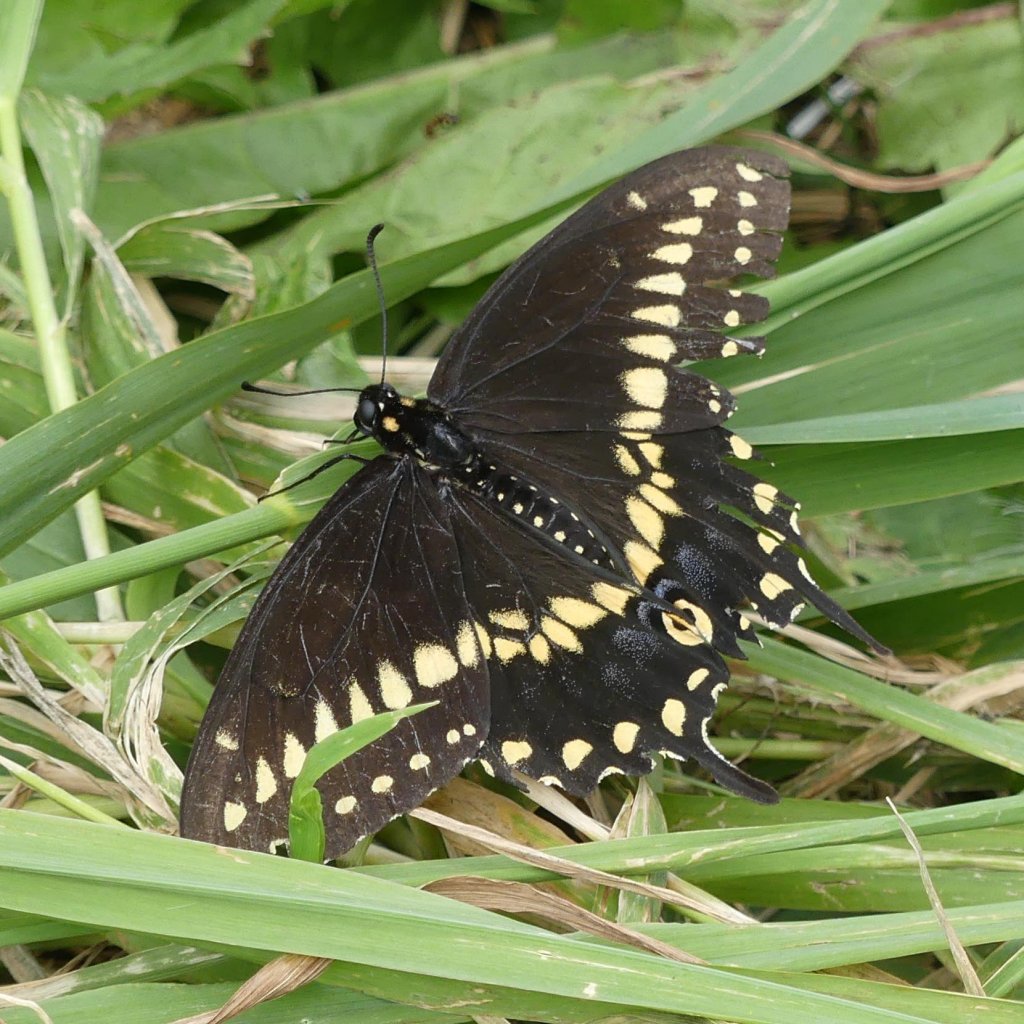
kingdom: Animalia
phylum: Arthropoda
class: Insecta
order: Lepidoptera
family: Papilionidae
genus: Papilio
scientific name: Papilio polyxenes
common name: Black Swallowtail
